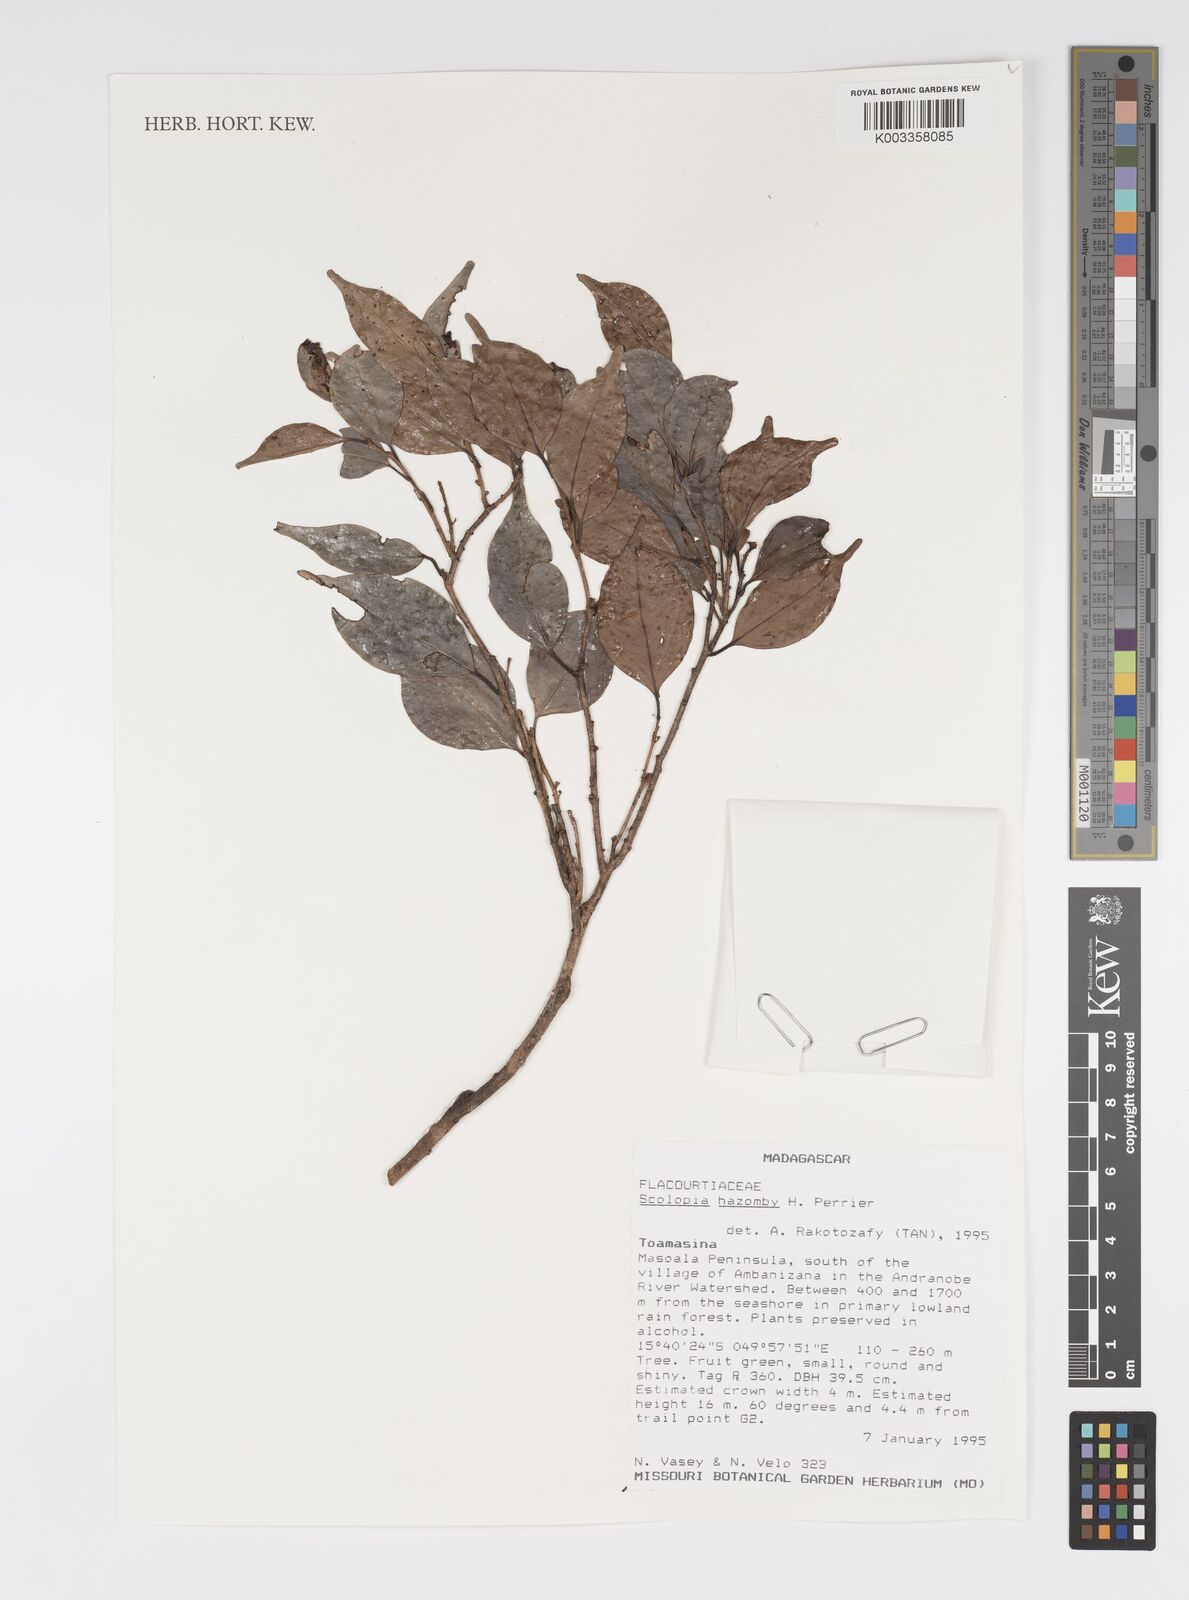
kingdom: Plantae
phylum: Tracheophyta
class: Magnoliopsida
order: Malpighiales
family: Salicaceae
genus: Scolopia
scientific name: Scolopia hazomby
